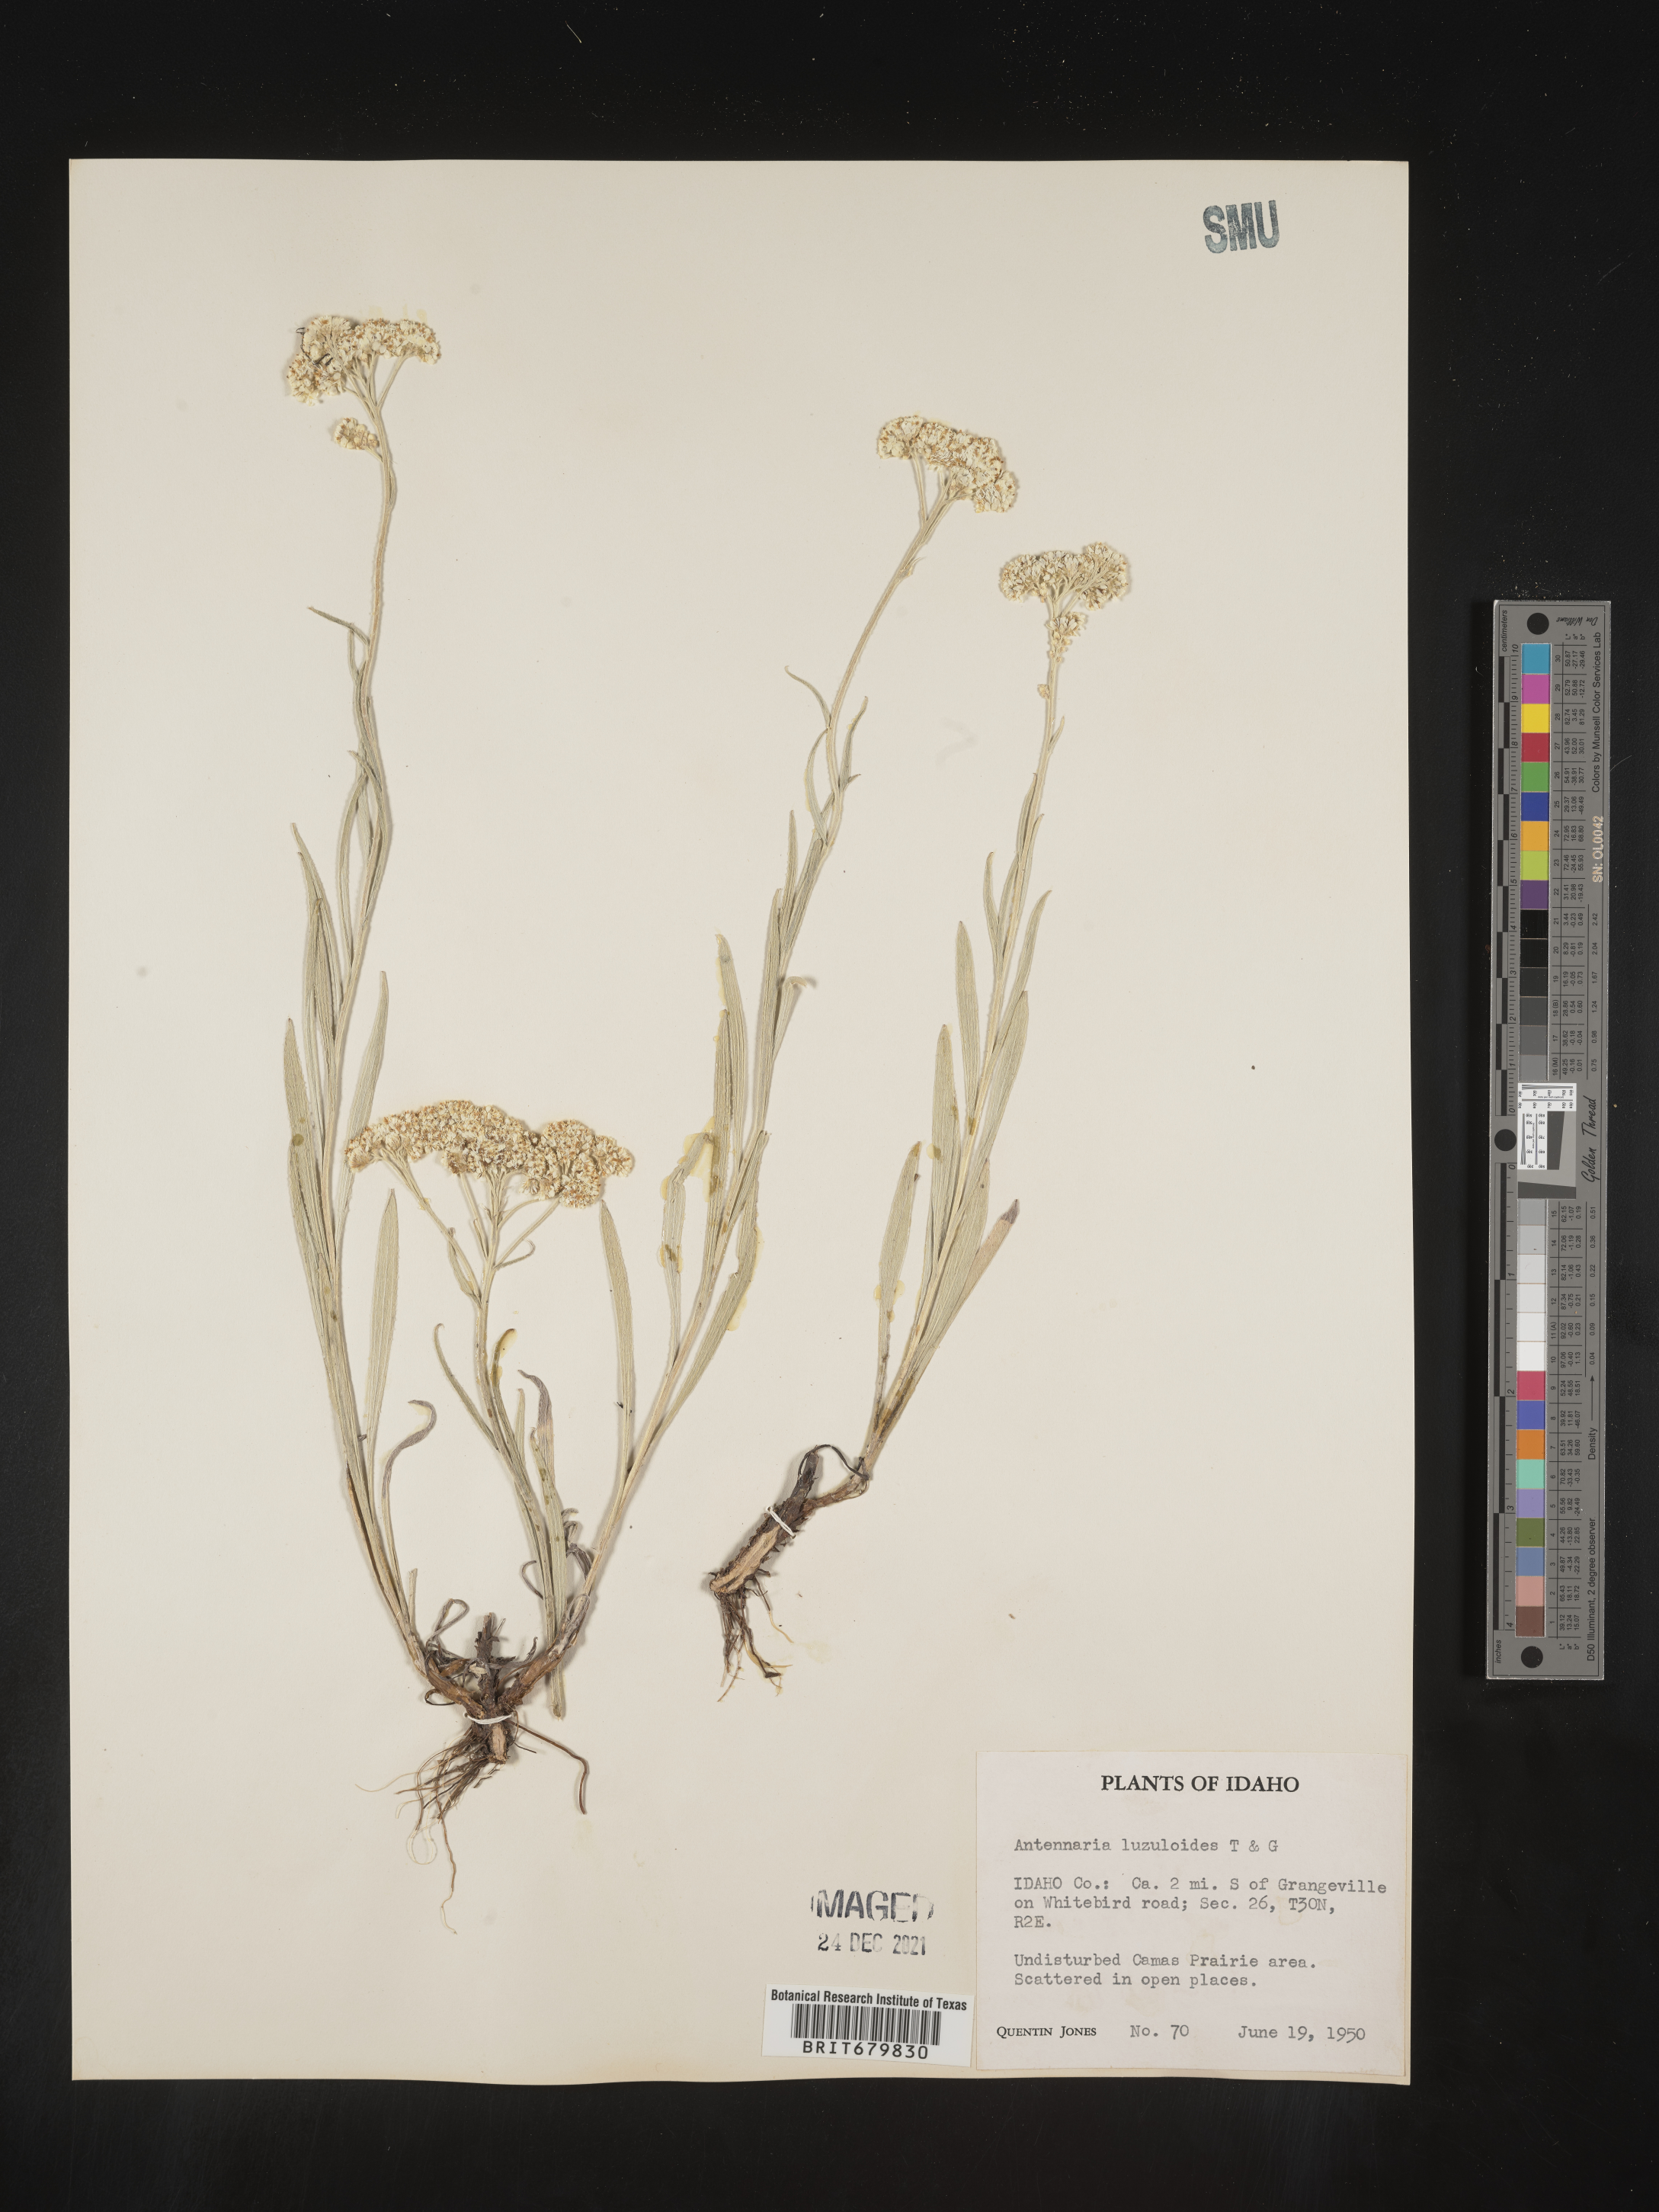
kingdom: Plantae
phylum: Tracheophyta
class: Magnoliopsida
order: Asterales
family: Asteraceae
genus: Antennaria
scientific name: Antennaria luzuloides
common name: Rush pussytoes
